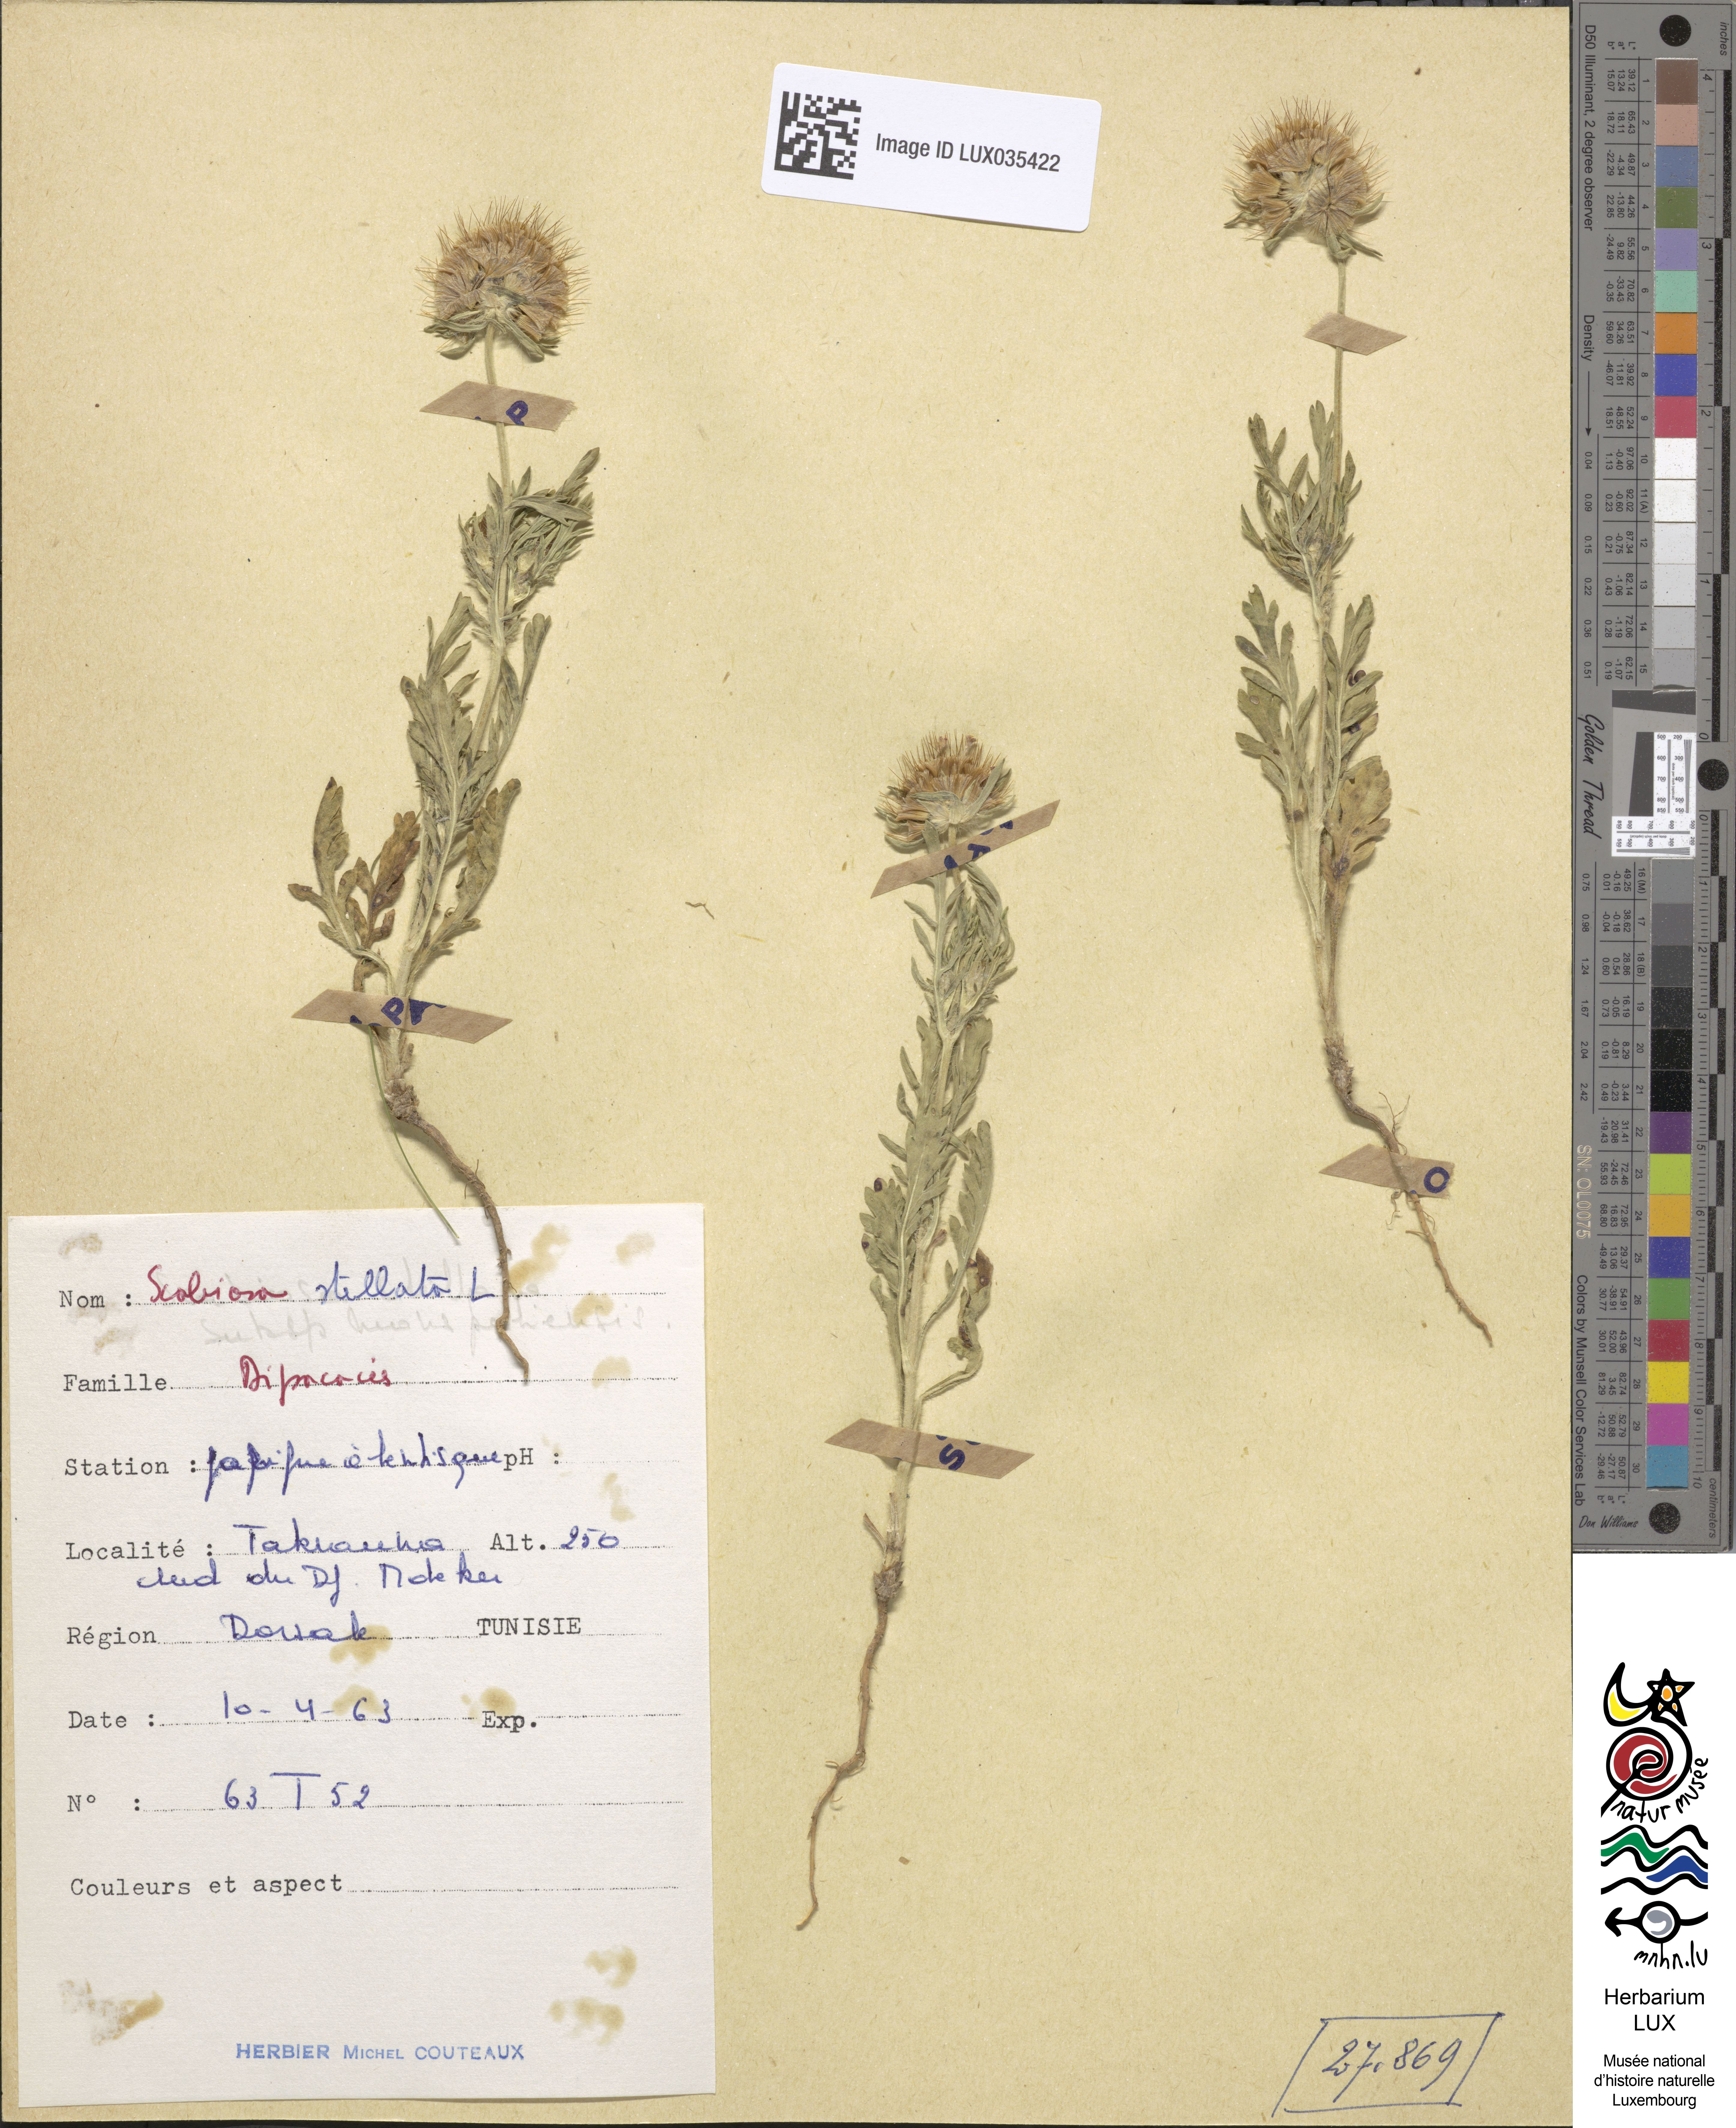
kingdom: Plantae
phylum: Tracheophyta
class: Magnoliopsida
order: Dipsacales
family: Caprifoliaceae
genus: Lomelosia
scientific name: Lomelosia stellata
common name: Teasel
